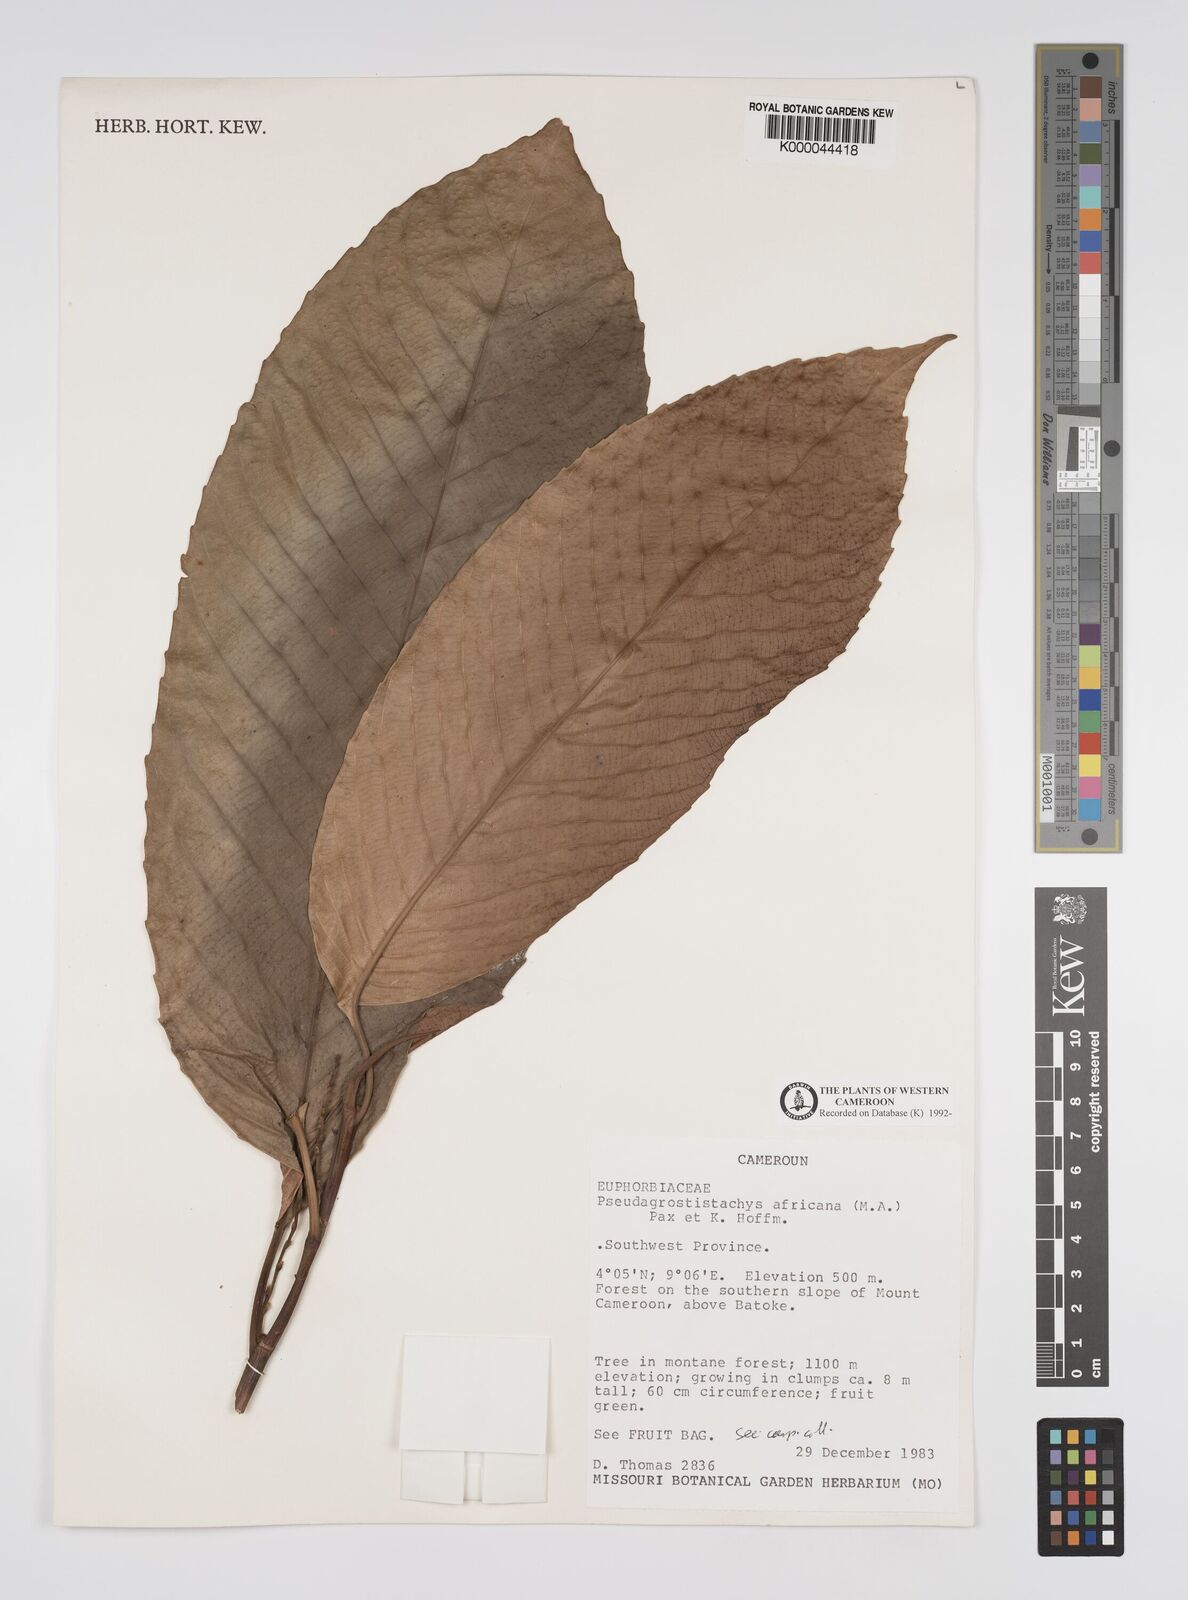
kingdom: Plantae
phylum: Tracheophyta
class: Magnoliopsida
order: Malpighiales
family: Euphorbiaceae
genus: Pseudagrostistachys
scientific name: Pseudagrostistachys
